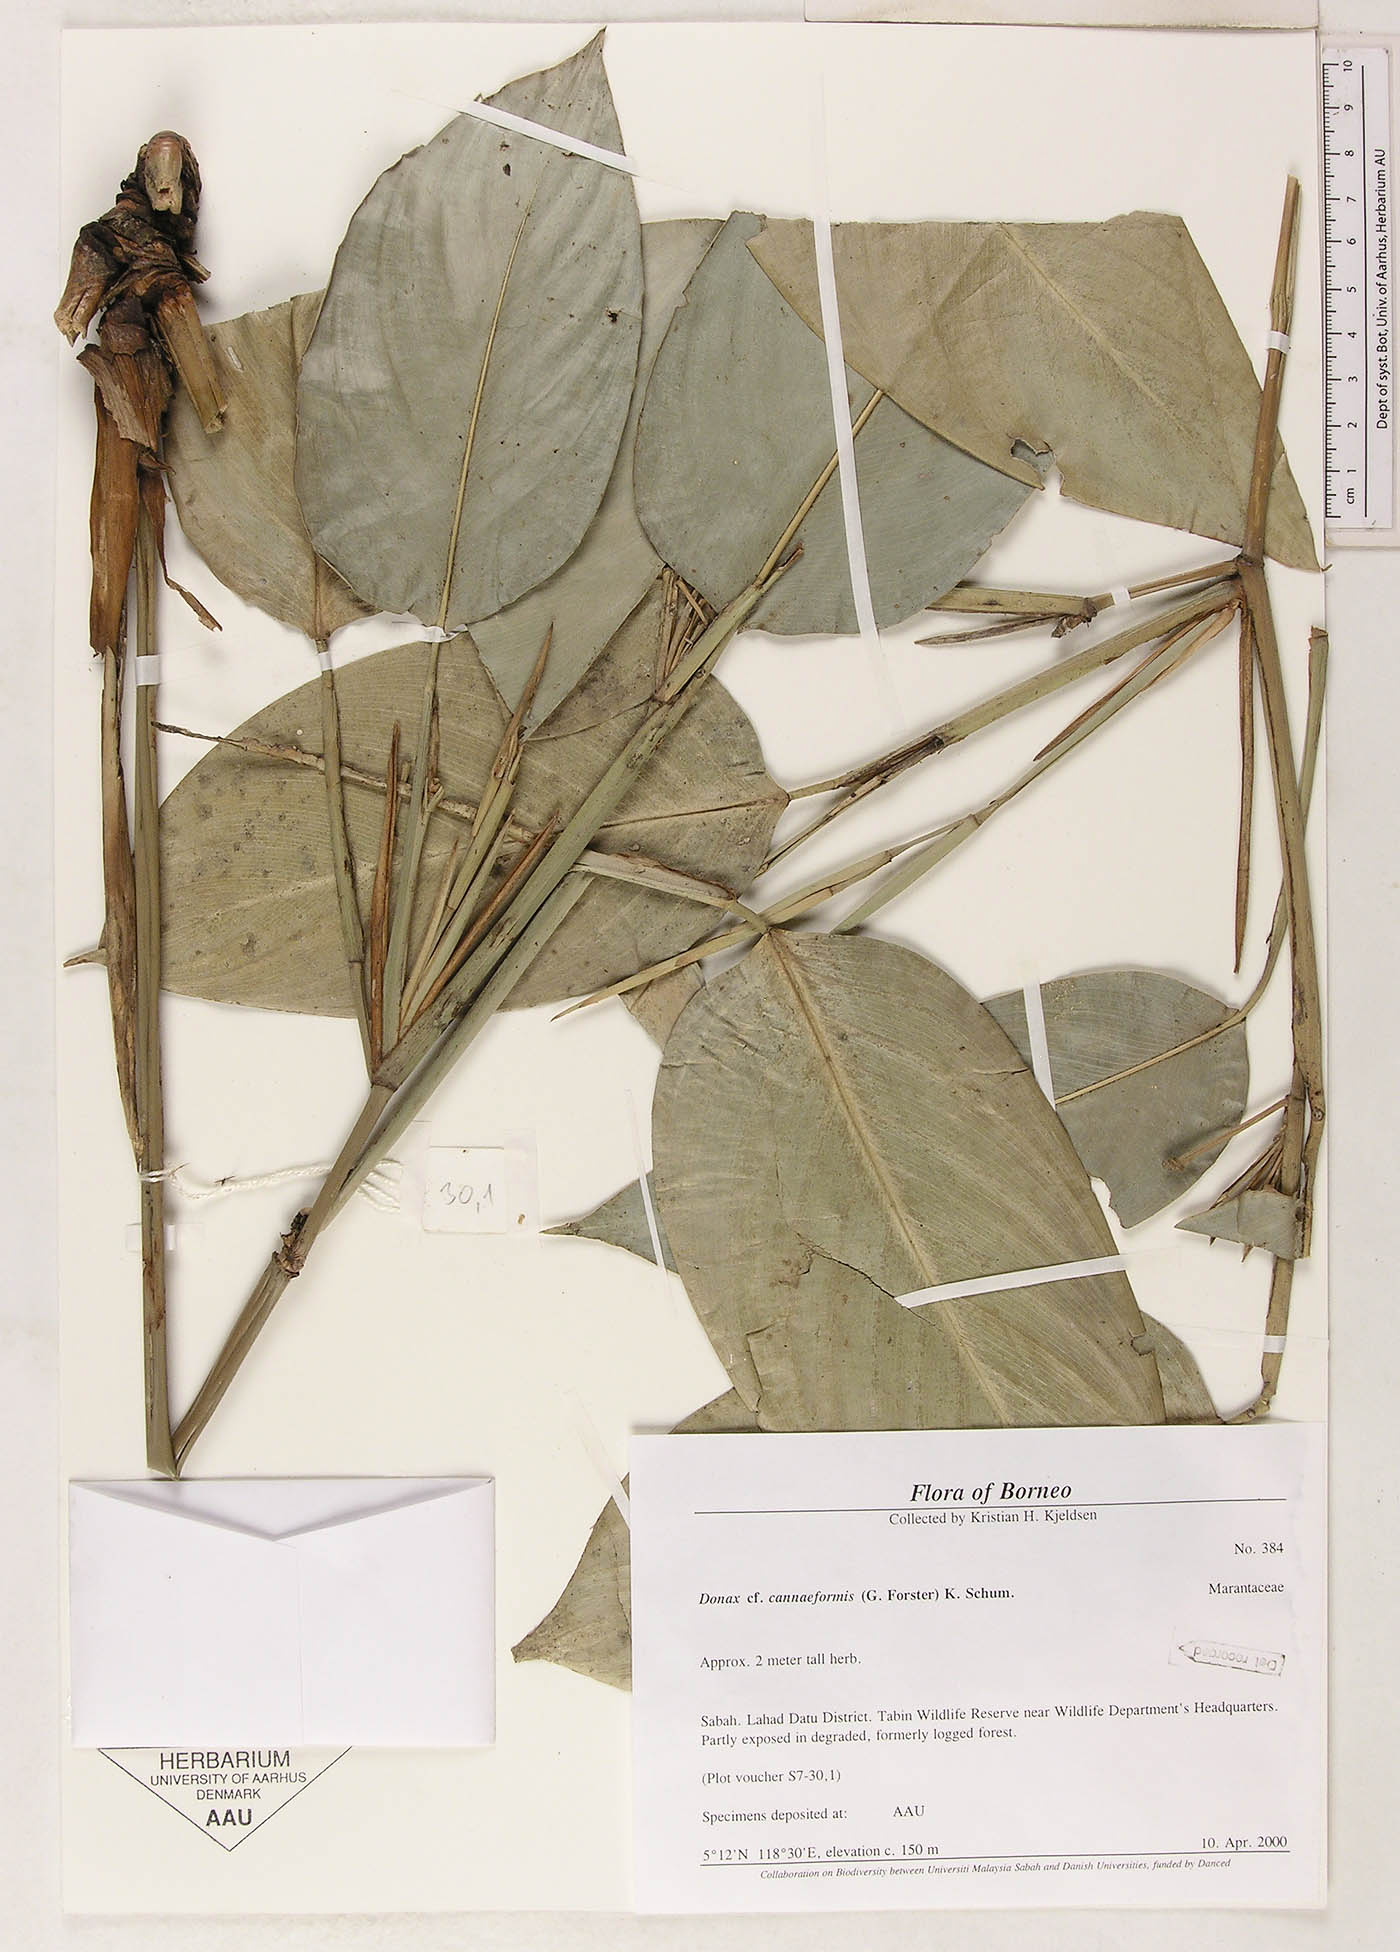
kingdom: Plantae
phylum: Tracheophyta
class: Liliopsida
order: Zingiberales
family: Marantaceae
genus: Donax
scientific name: Donax canniformis
